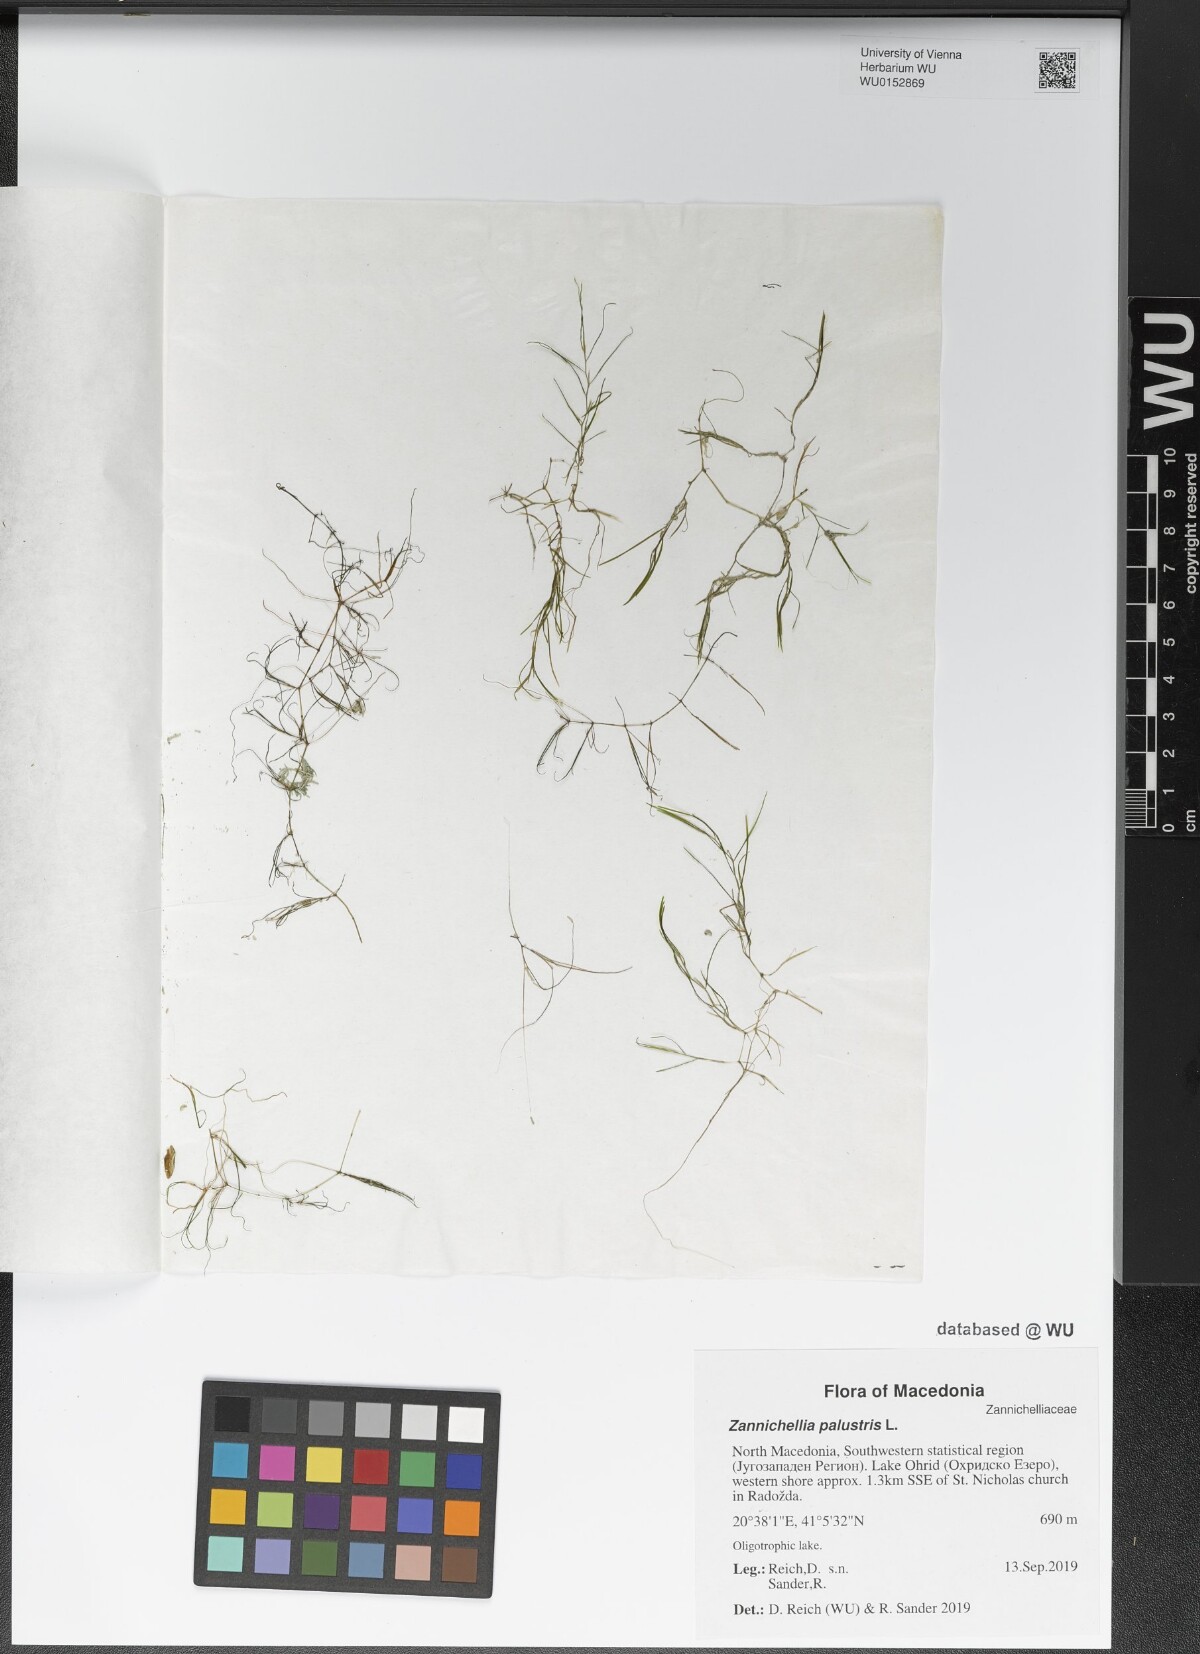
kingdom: Plantae
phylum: Tracheophyta
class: Liliopsida
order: Alismatales
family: Potamogetonaceae
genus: Zannichellia
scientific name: Zannichellia palustris
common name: Horned pondweed
